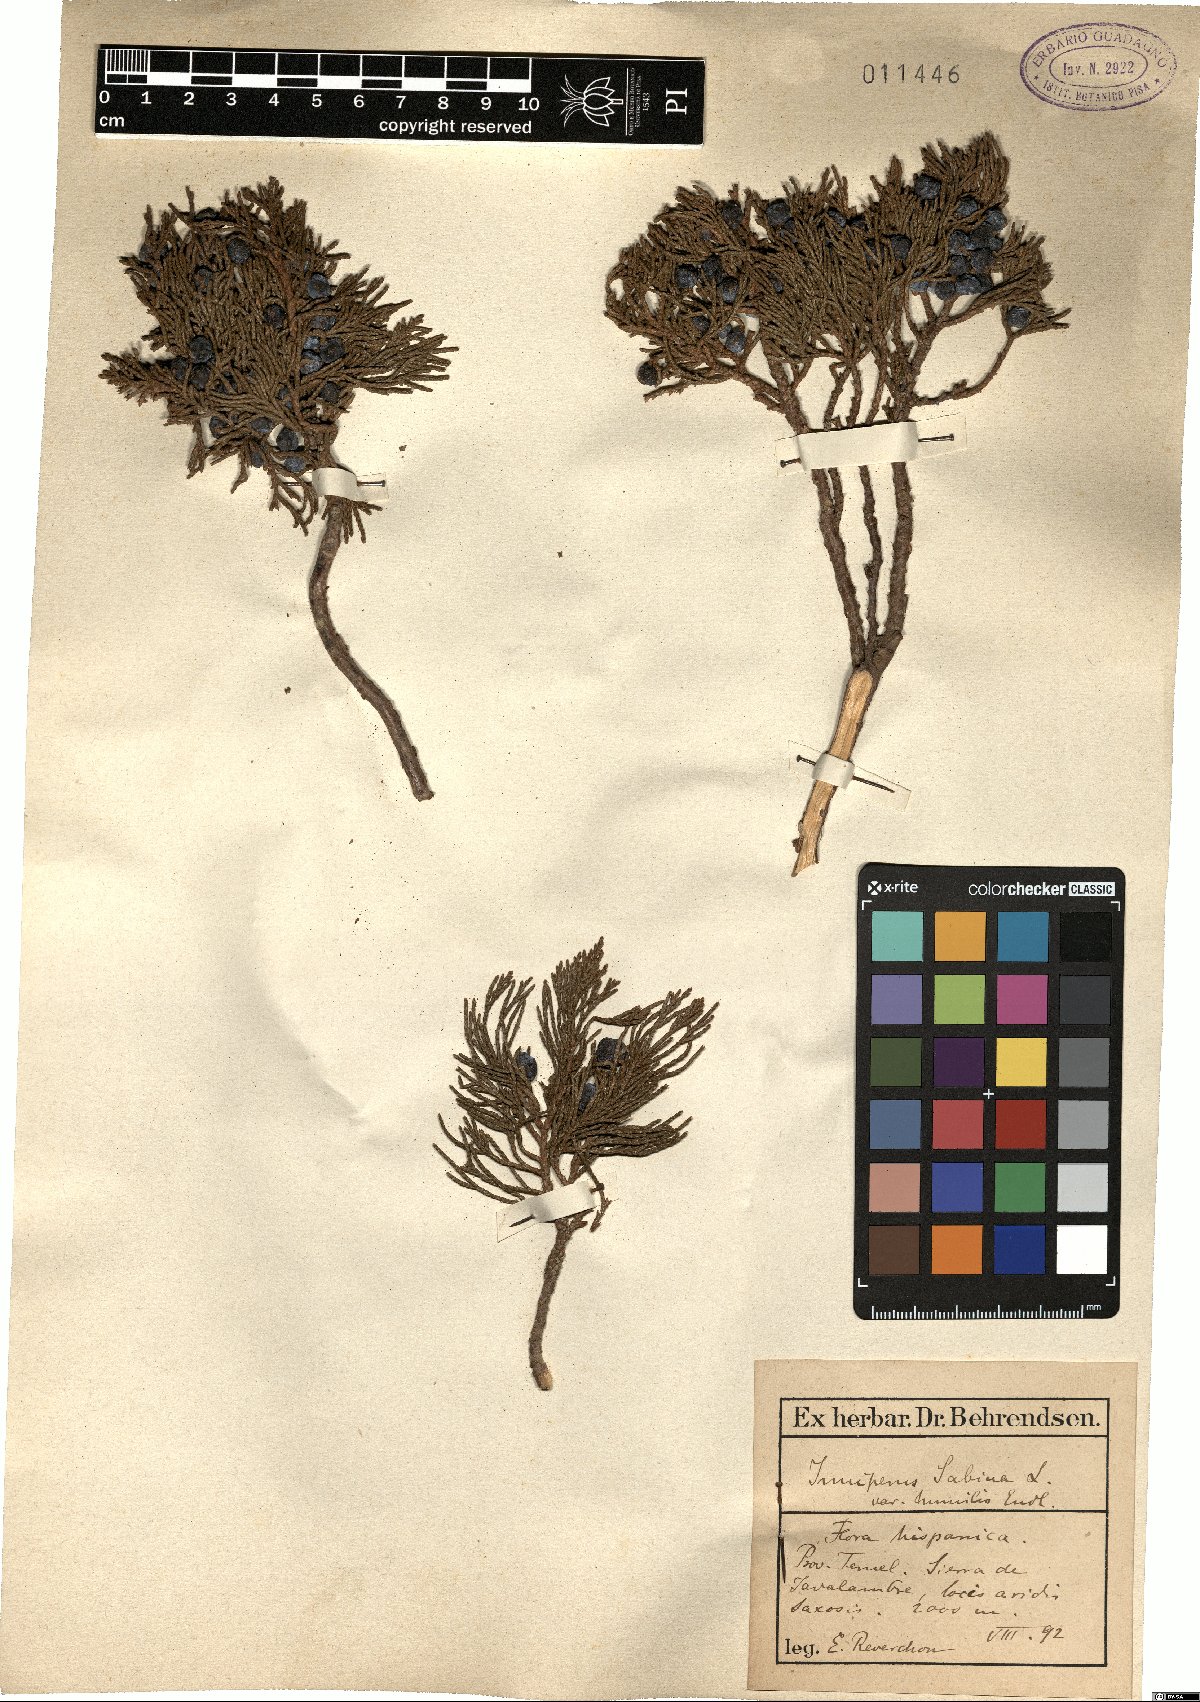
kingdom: Plantae
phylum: Tracheophyta
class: Pinopsida
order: Pinales
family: Cupressaceae
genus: Juniperus
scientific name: Juniperus sabina
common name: Savin
